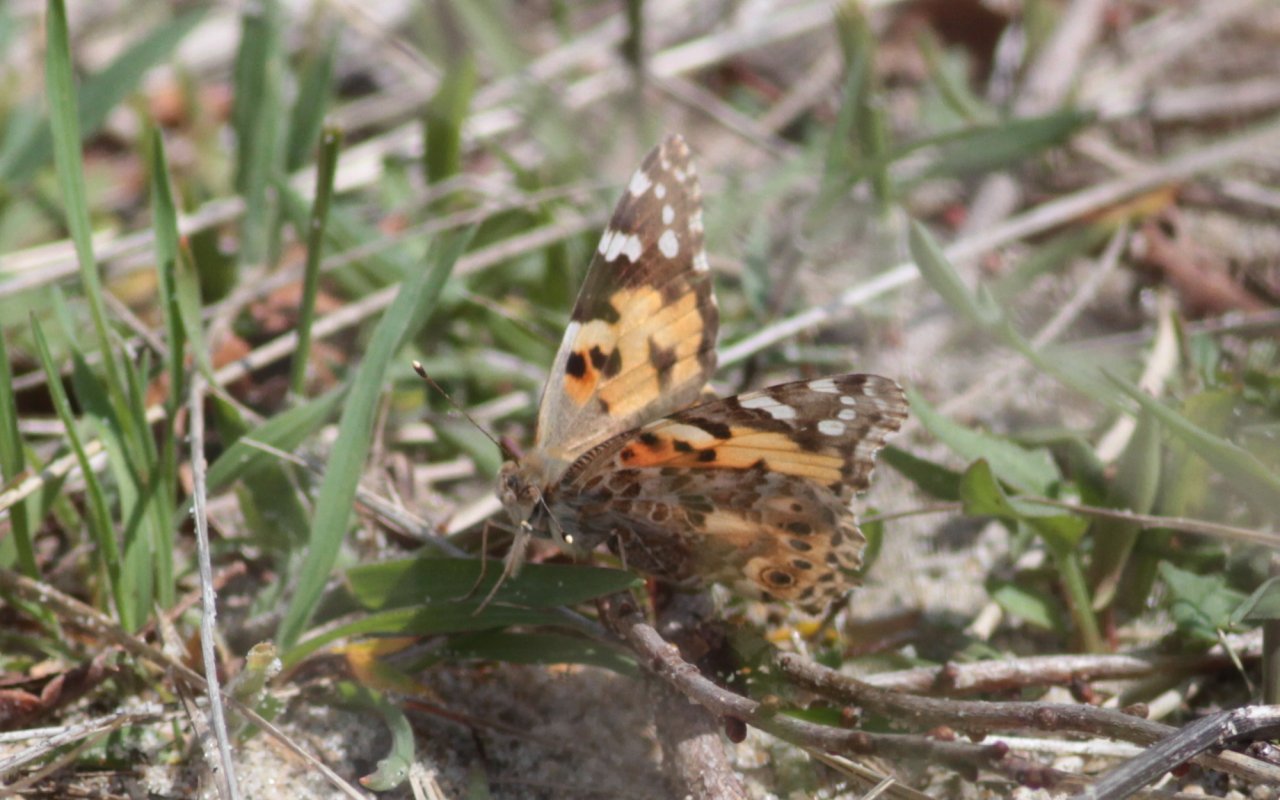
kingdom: Animalia
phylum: Arthropoda
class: Insecta
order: Lepidoptera
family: Nymphalidae
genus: Vanessa
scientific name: Vanessa cardui
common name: Painted Lady
